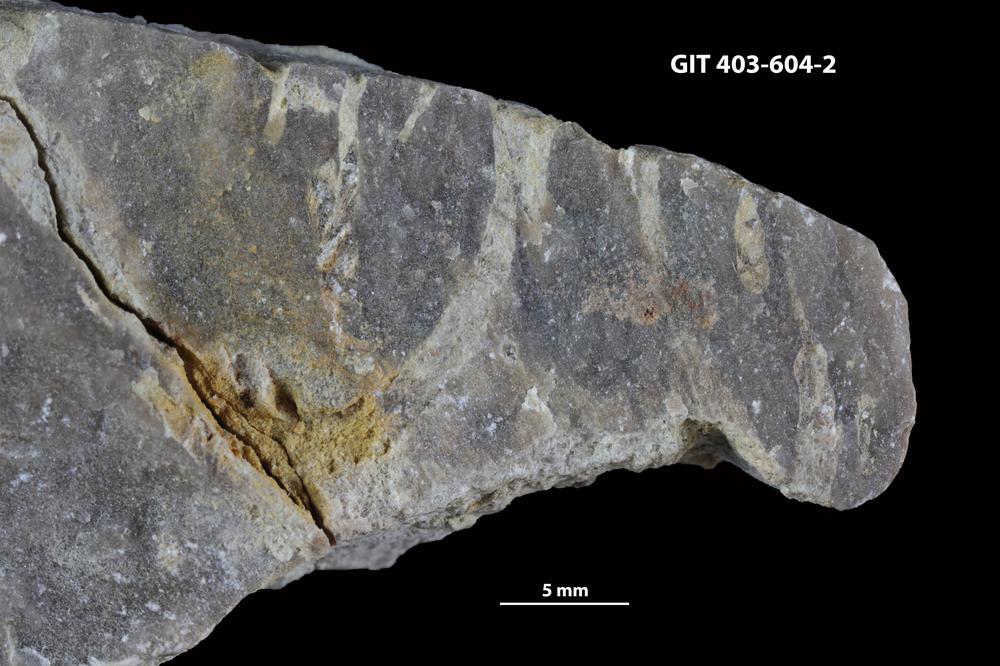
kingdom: Animalia
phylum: Sipuncula
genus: Trypanites
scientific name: Trypanites
